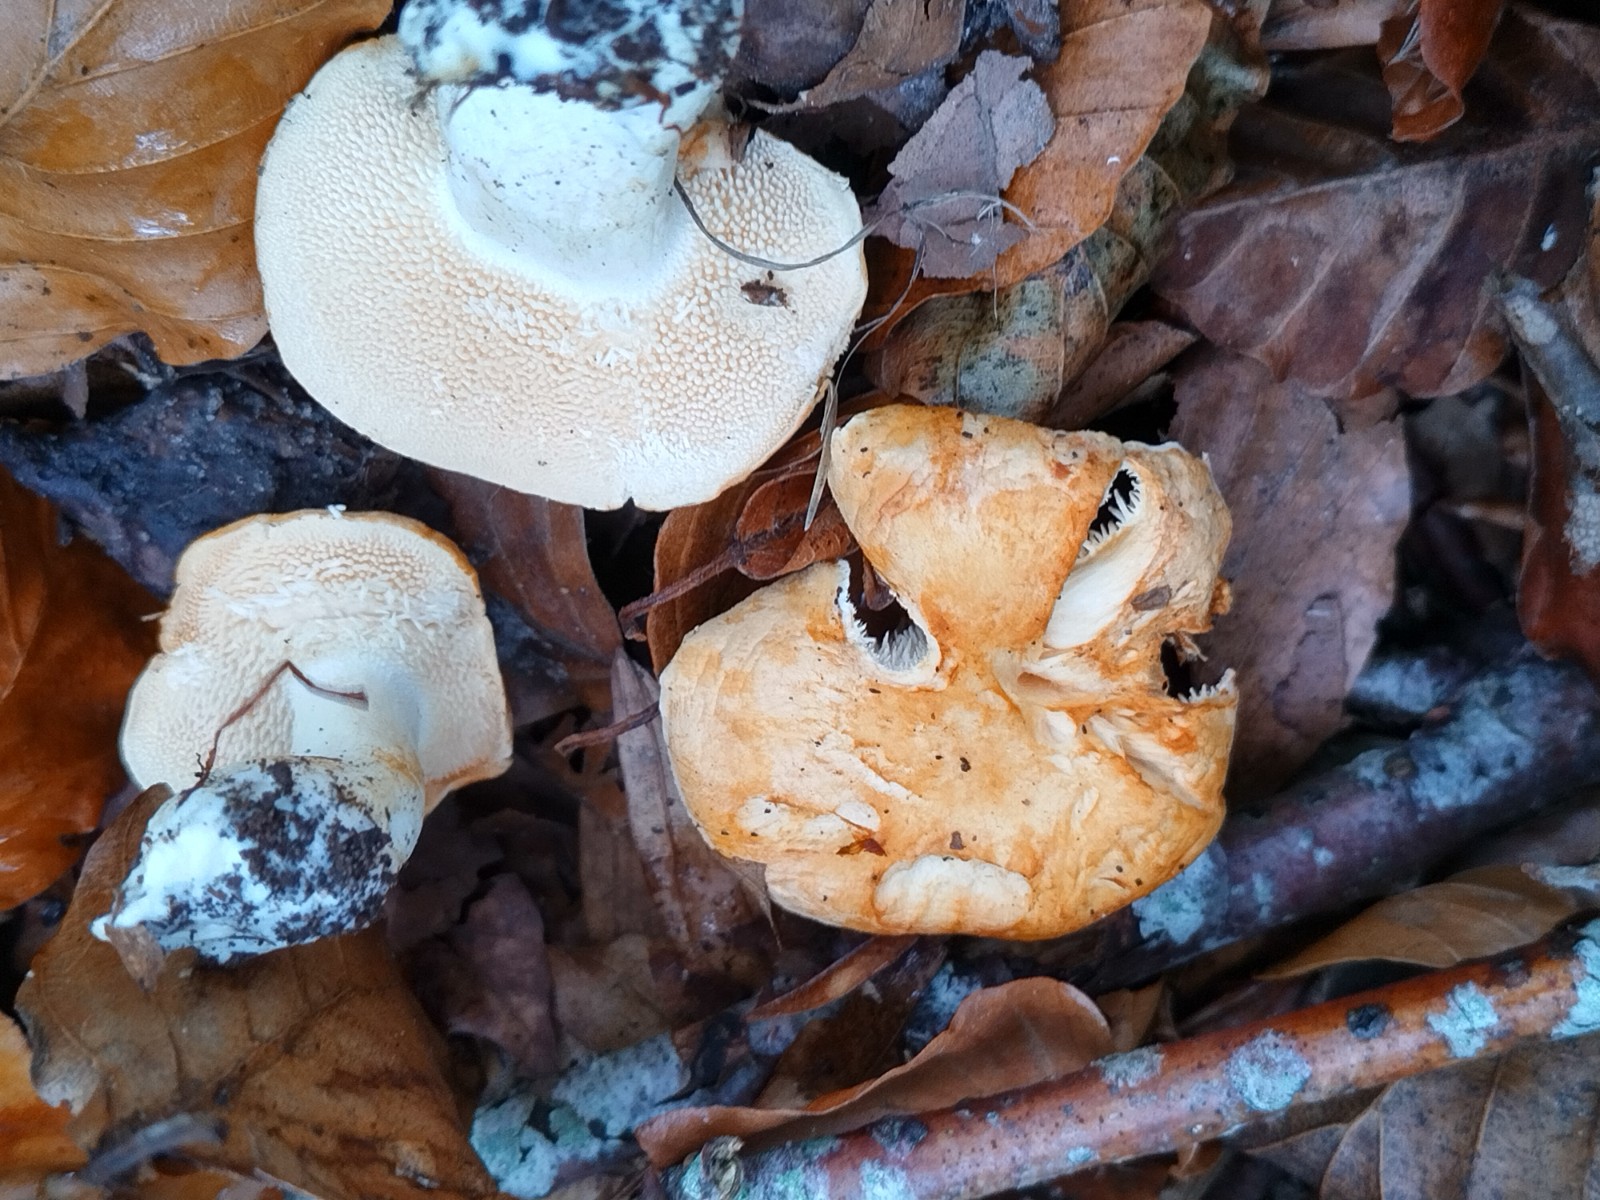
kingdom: Fungi
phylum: Basidiomycota
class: Agaricomycetes
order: Cantharellales
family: Hydnaceae
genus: Hydnum
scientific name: Hydnum repandum
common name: almindelig pigsvamp
